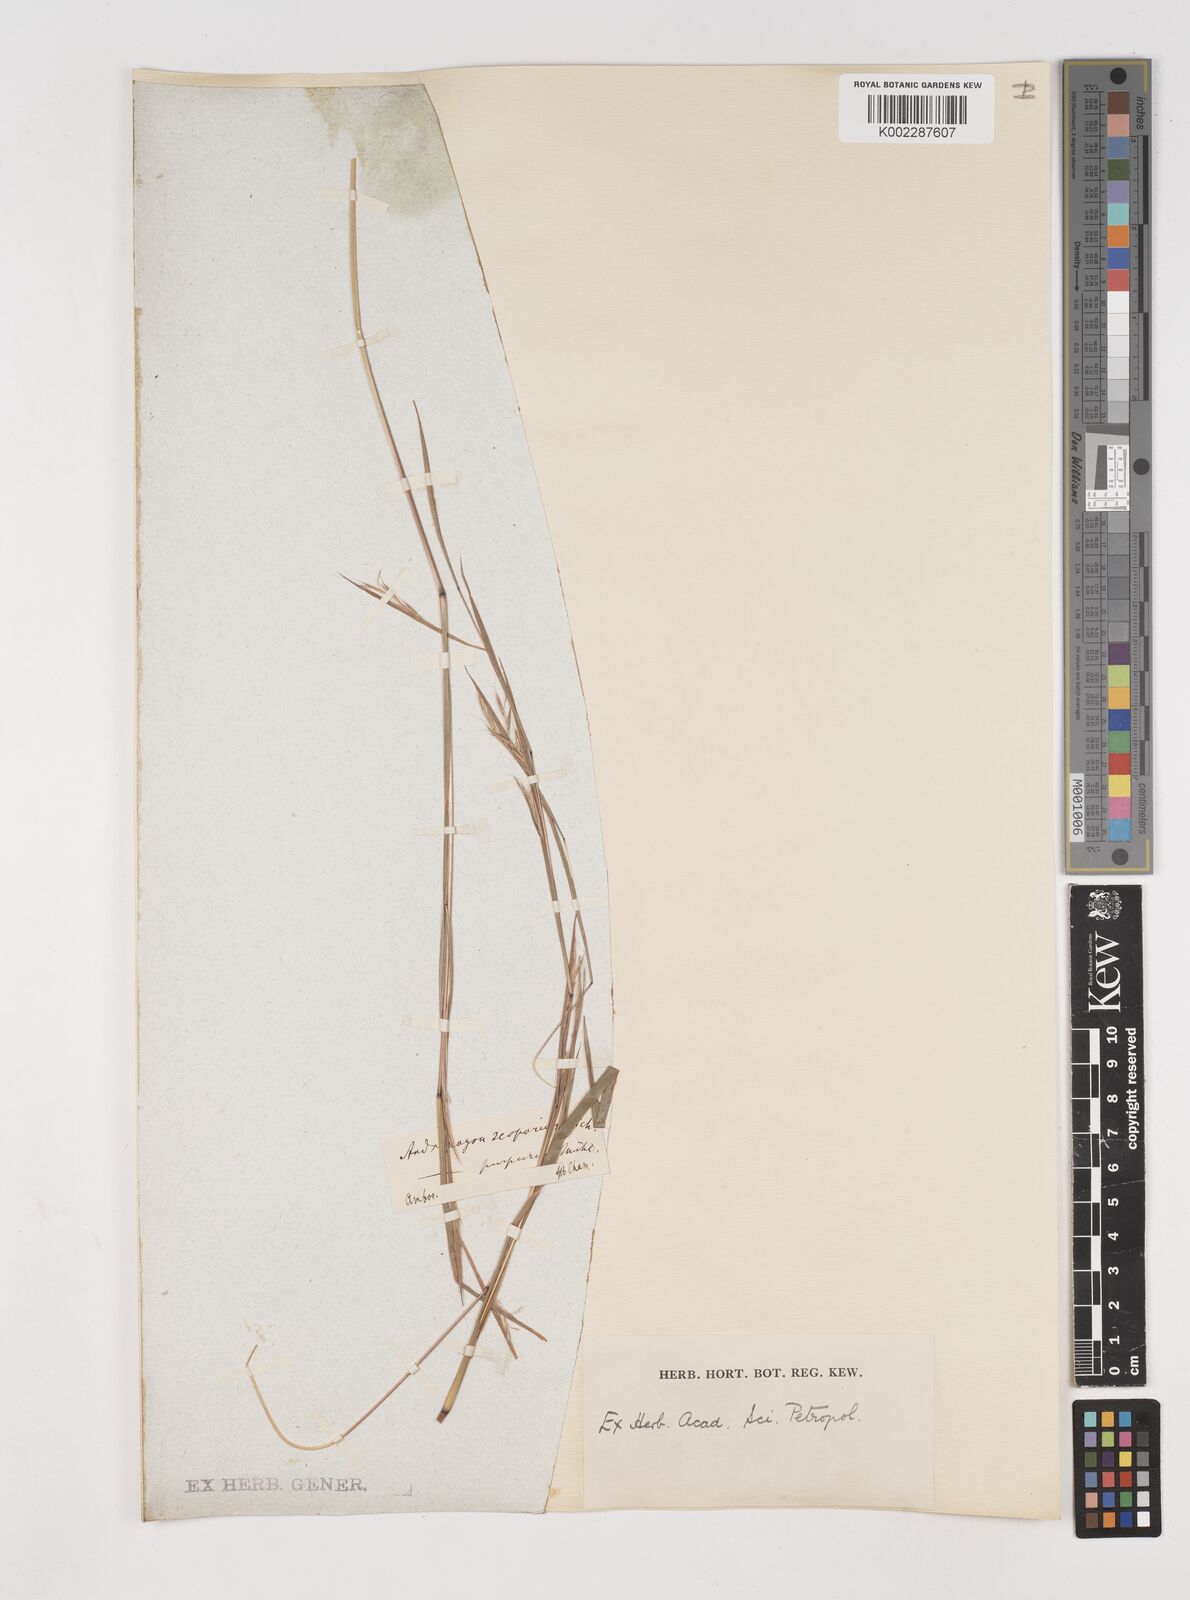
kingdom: Plantae
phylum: Tracheophyta
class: Liliopsida
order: Poales
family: Poaceae
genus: Schizachyrium
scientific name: Schizachyrium scoparium
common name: Little bluestem
